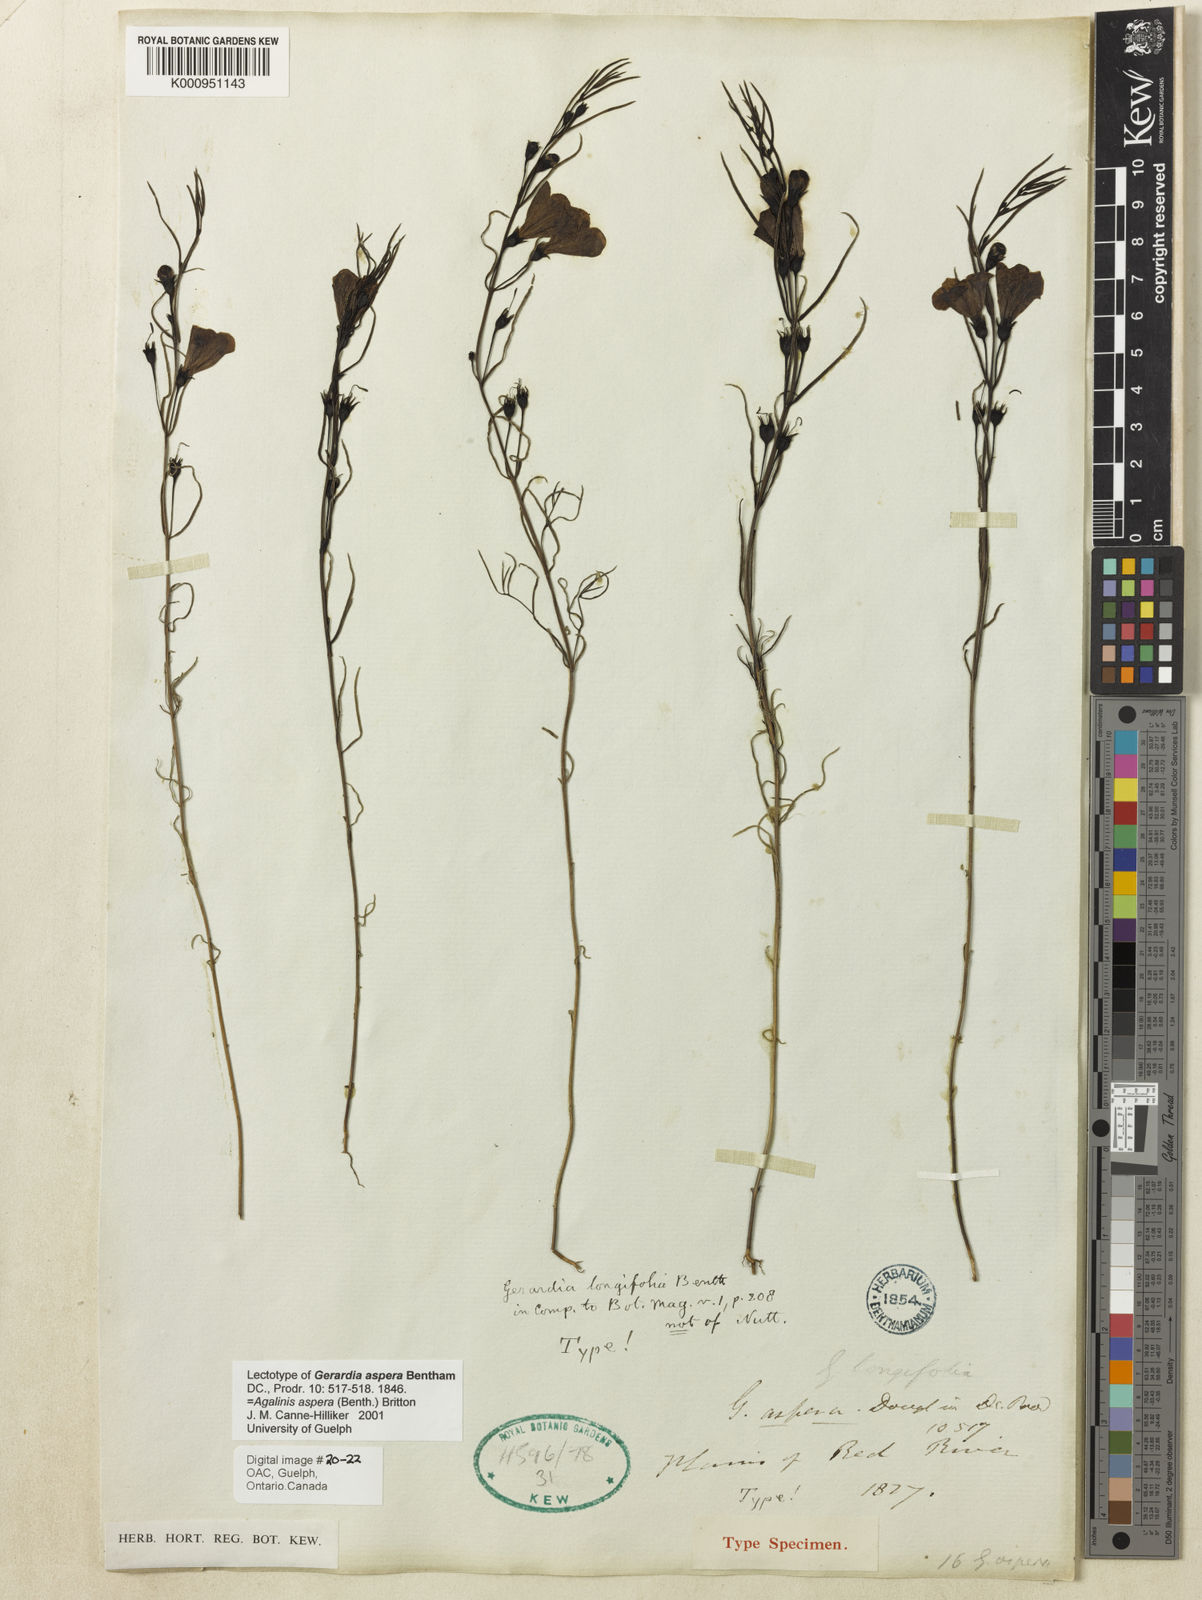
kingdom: Plantae
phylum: Tracheophyta
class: Magnoliopsida
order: Lamiales
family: Orobanchaceae
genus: Agalinis
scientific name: Agalinis aspera
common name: Rough agalinis
